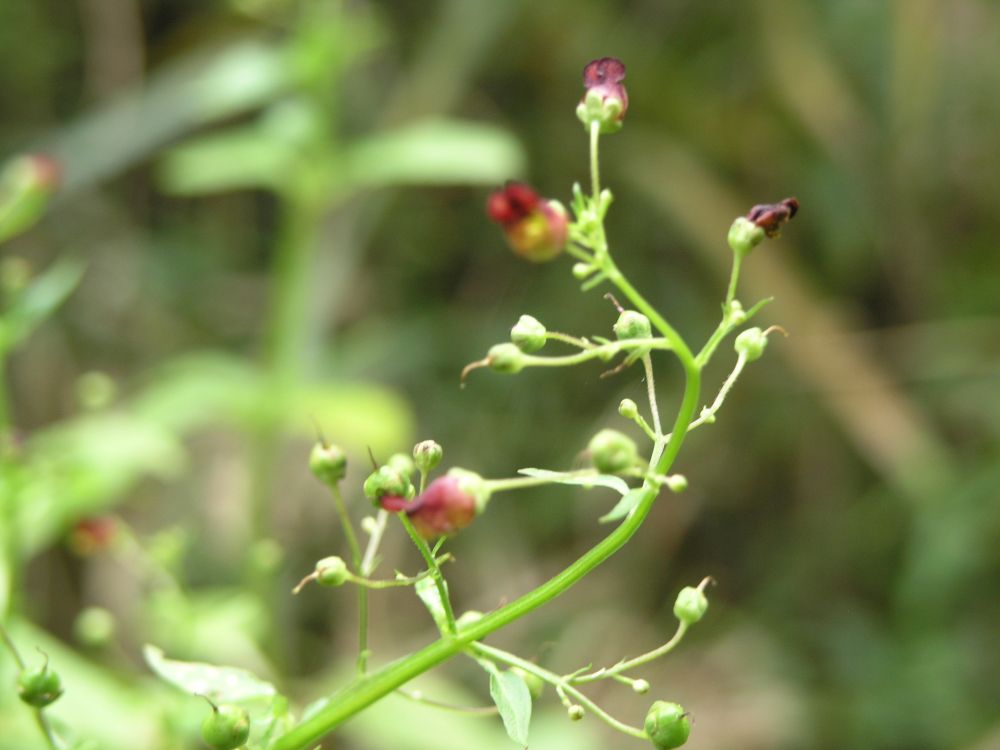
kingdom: Plantae
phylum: Tracheophyta
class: Magnoliopsida
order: Lamiales
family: Scrophulariaceae
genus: Scrophularia
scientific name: Scrophularia umbrosa
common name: Green figwort
